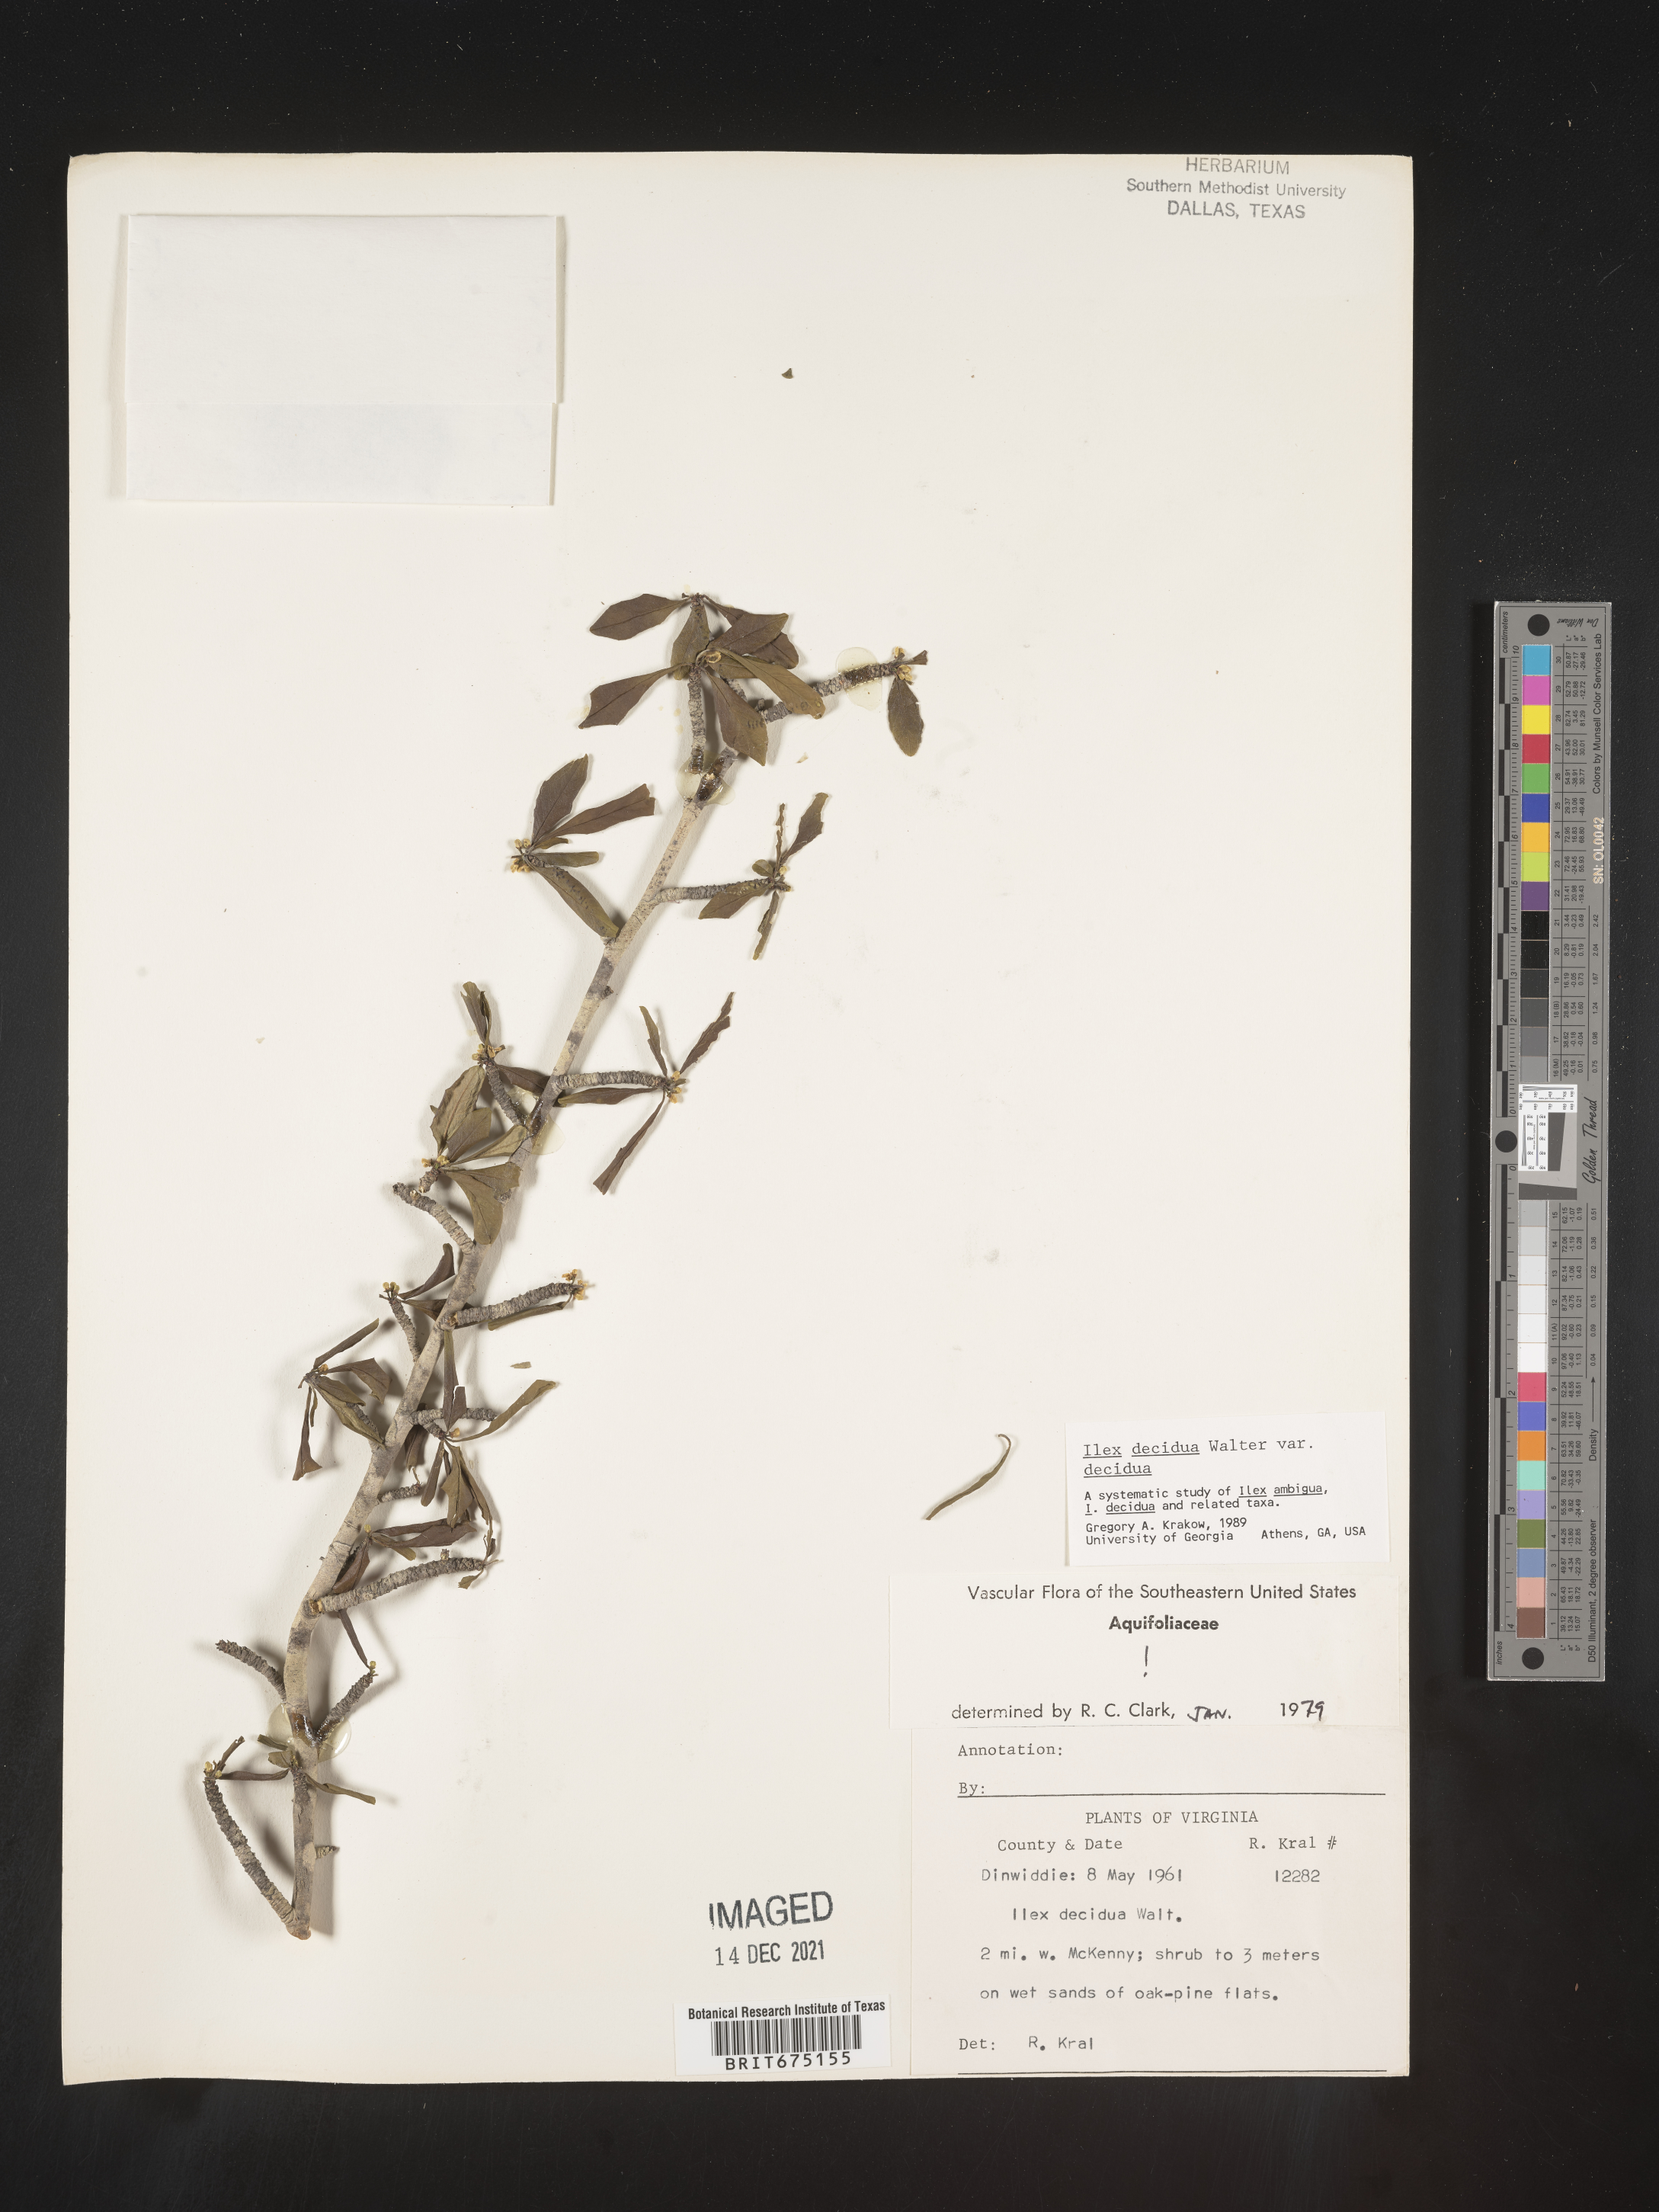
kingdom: Plantae
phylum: Tracheophyta
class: Magnoliopsida
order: Aquifoliales
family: Aquifoliaceae
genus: Ilex
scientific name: Ilex decidua
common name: Possum-haw
